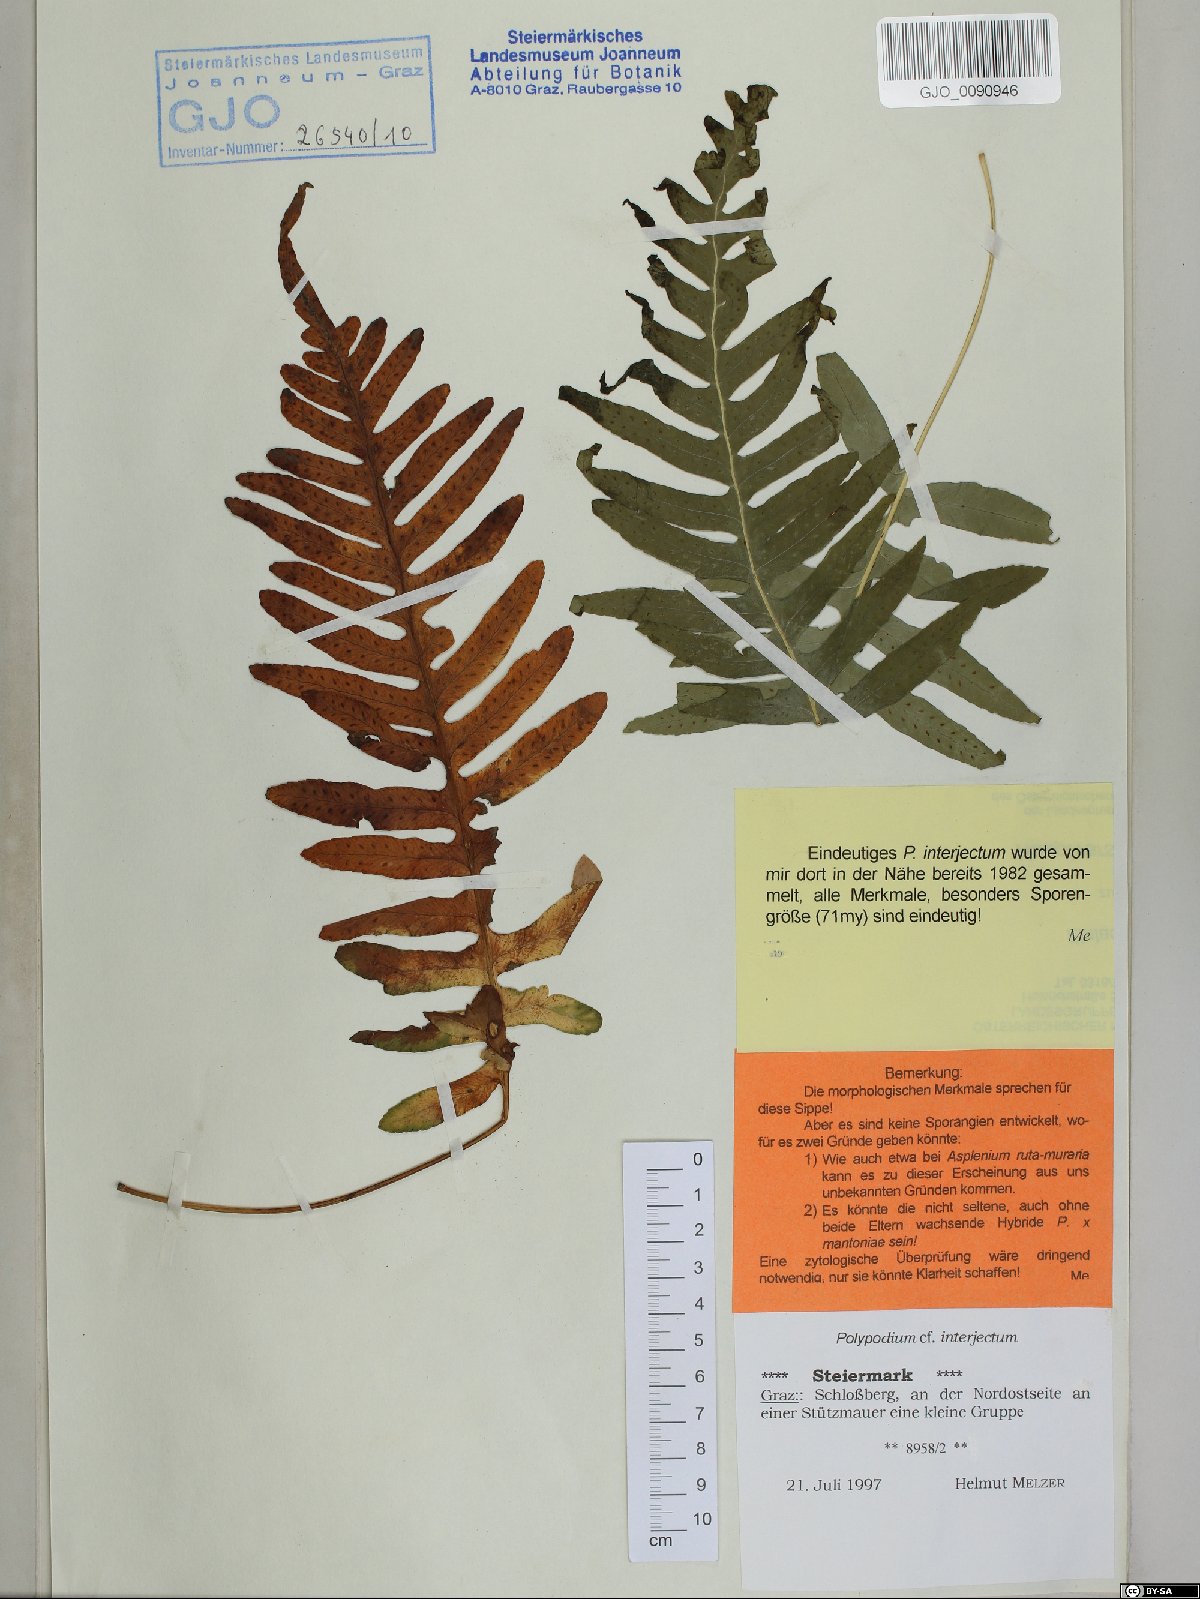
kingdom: Plantae
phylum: Tracheophyta
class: Polypodiopsida
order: Polypodiales
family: Polypodiaceae
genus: Polypodium
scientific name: Polypodium interjectum
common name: Intermediate polypody
